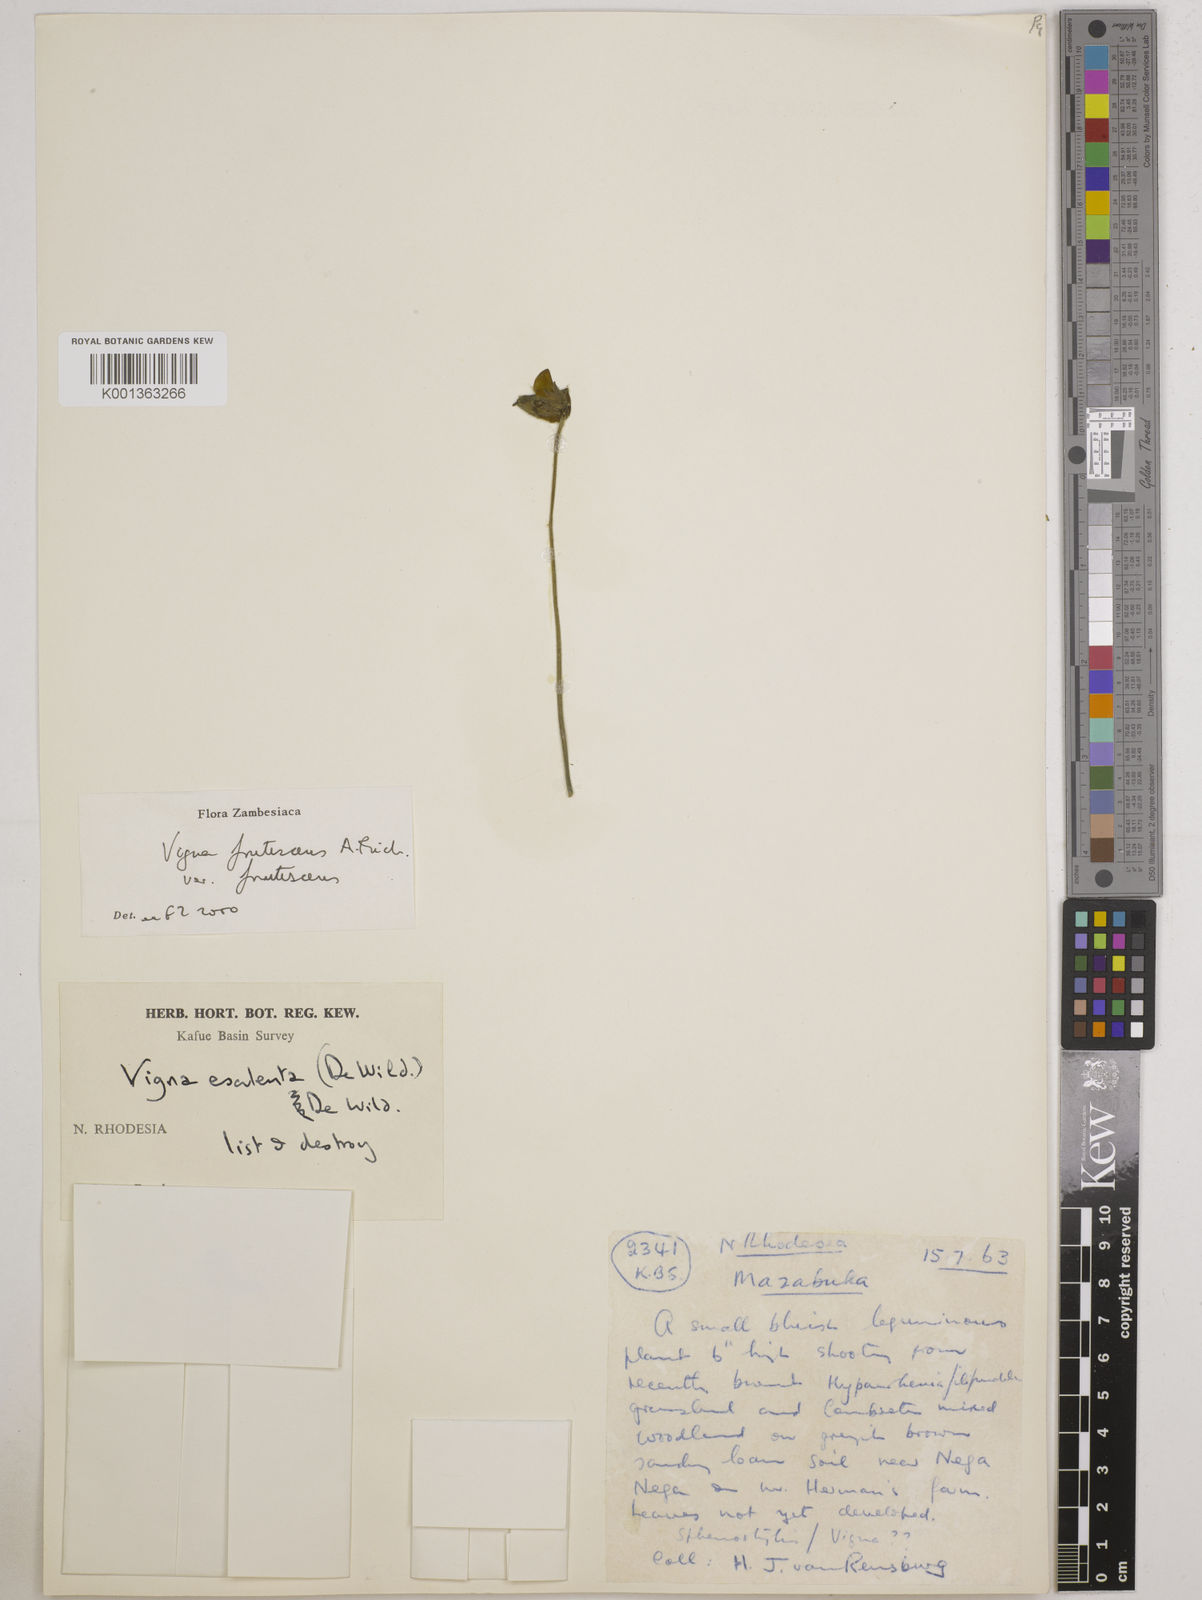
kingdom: Plantae
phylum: Tracheophyta
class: Magnoliopsida
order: Fabales
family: Fabaceae
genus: Vigna
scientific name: Vigna
